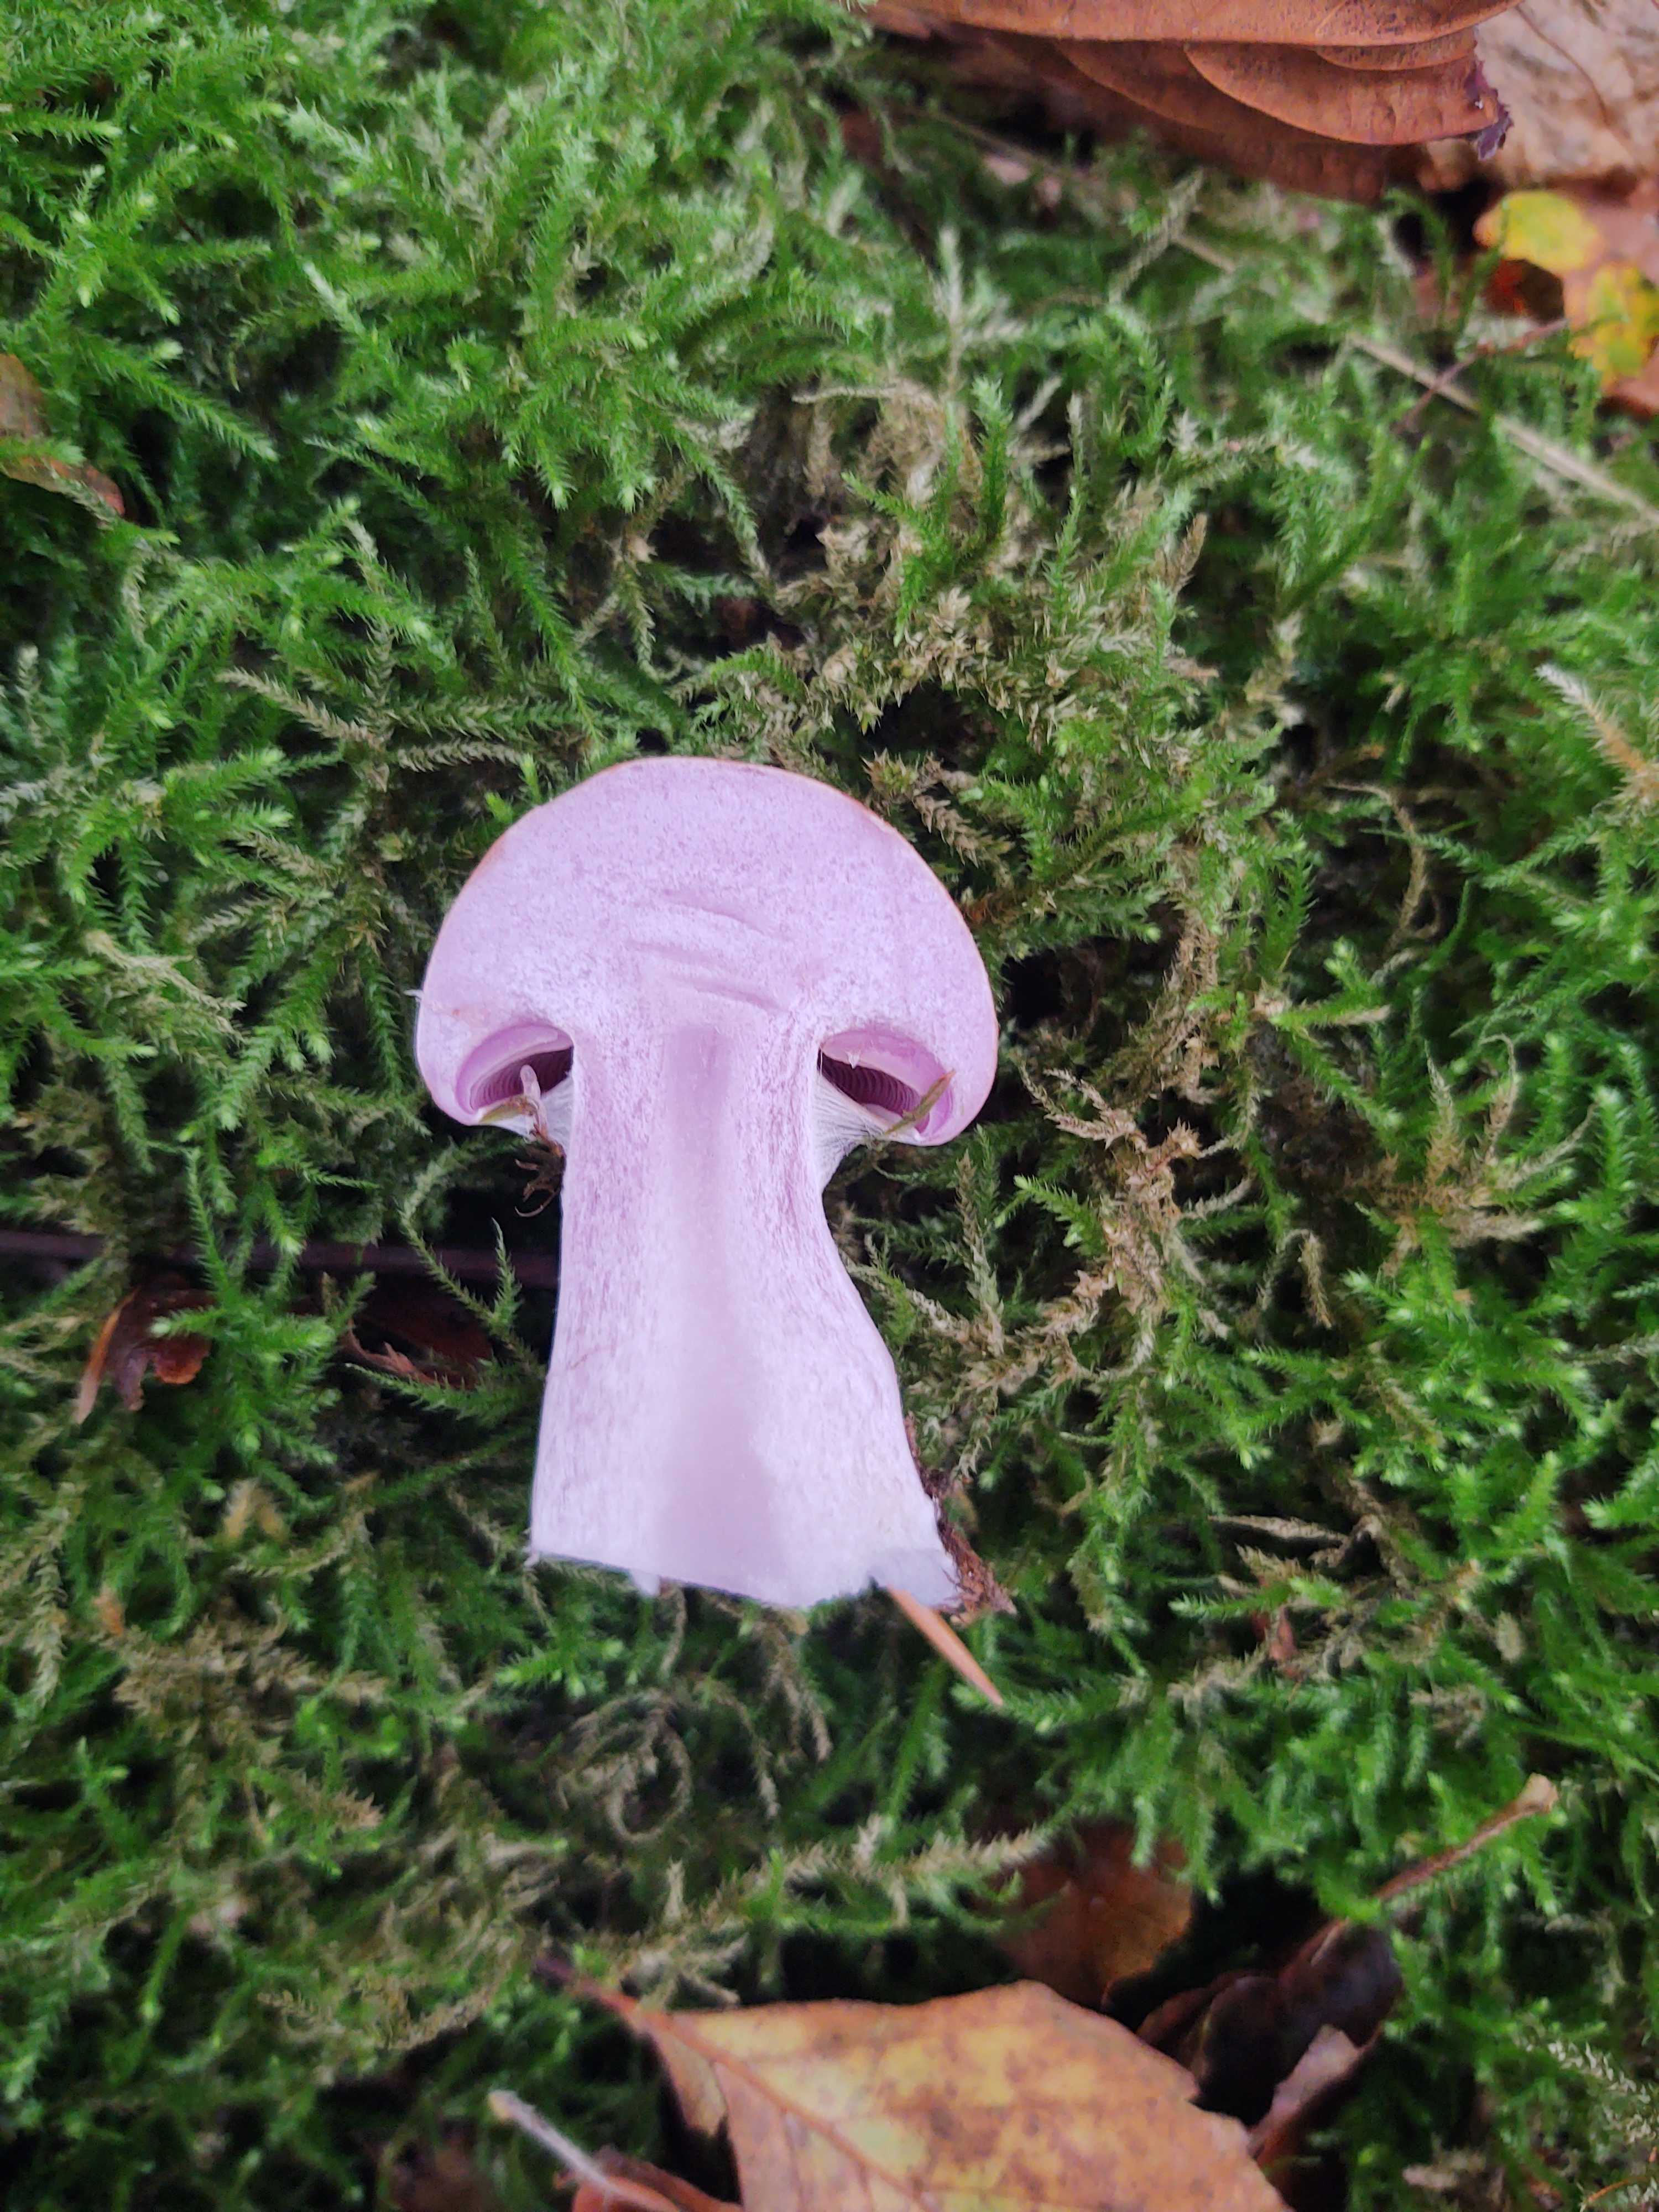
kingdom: Fungi
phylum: Basidiomycota
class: Agaricomycetes
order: Agaricales
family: Cortinariaceae
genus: Cortinarius
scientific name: Cortinarius
